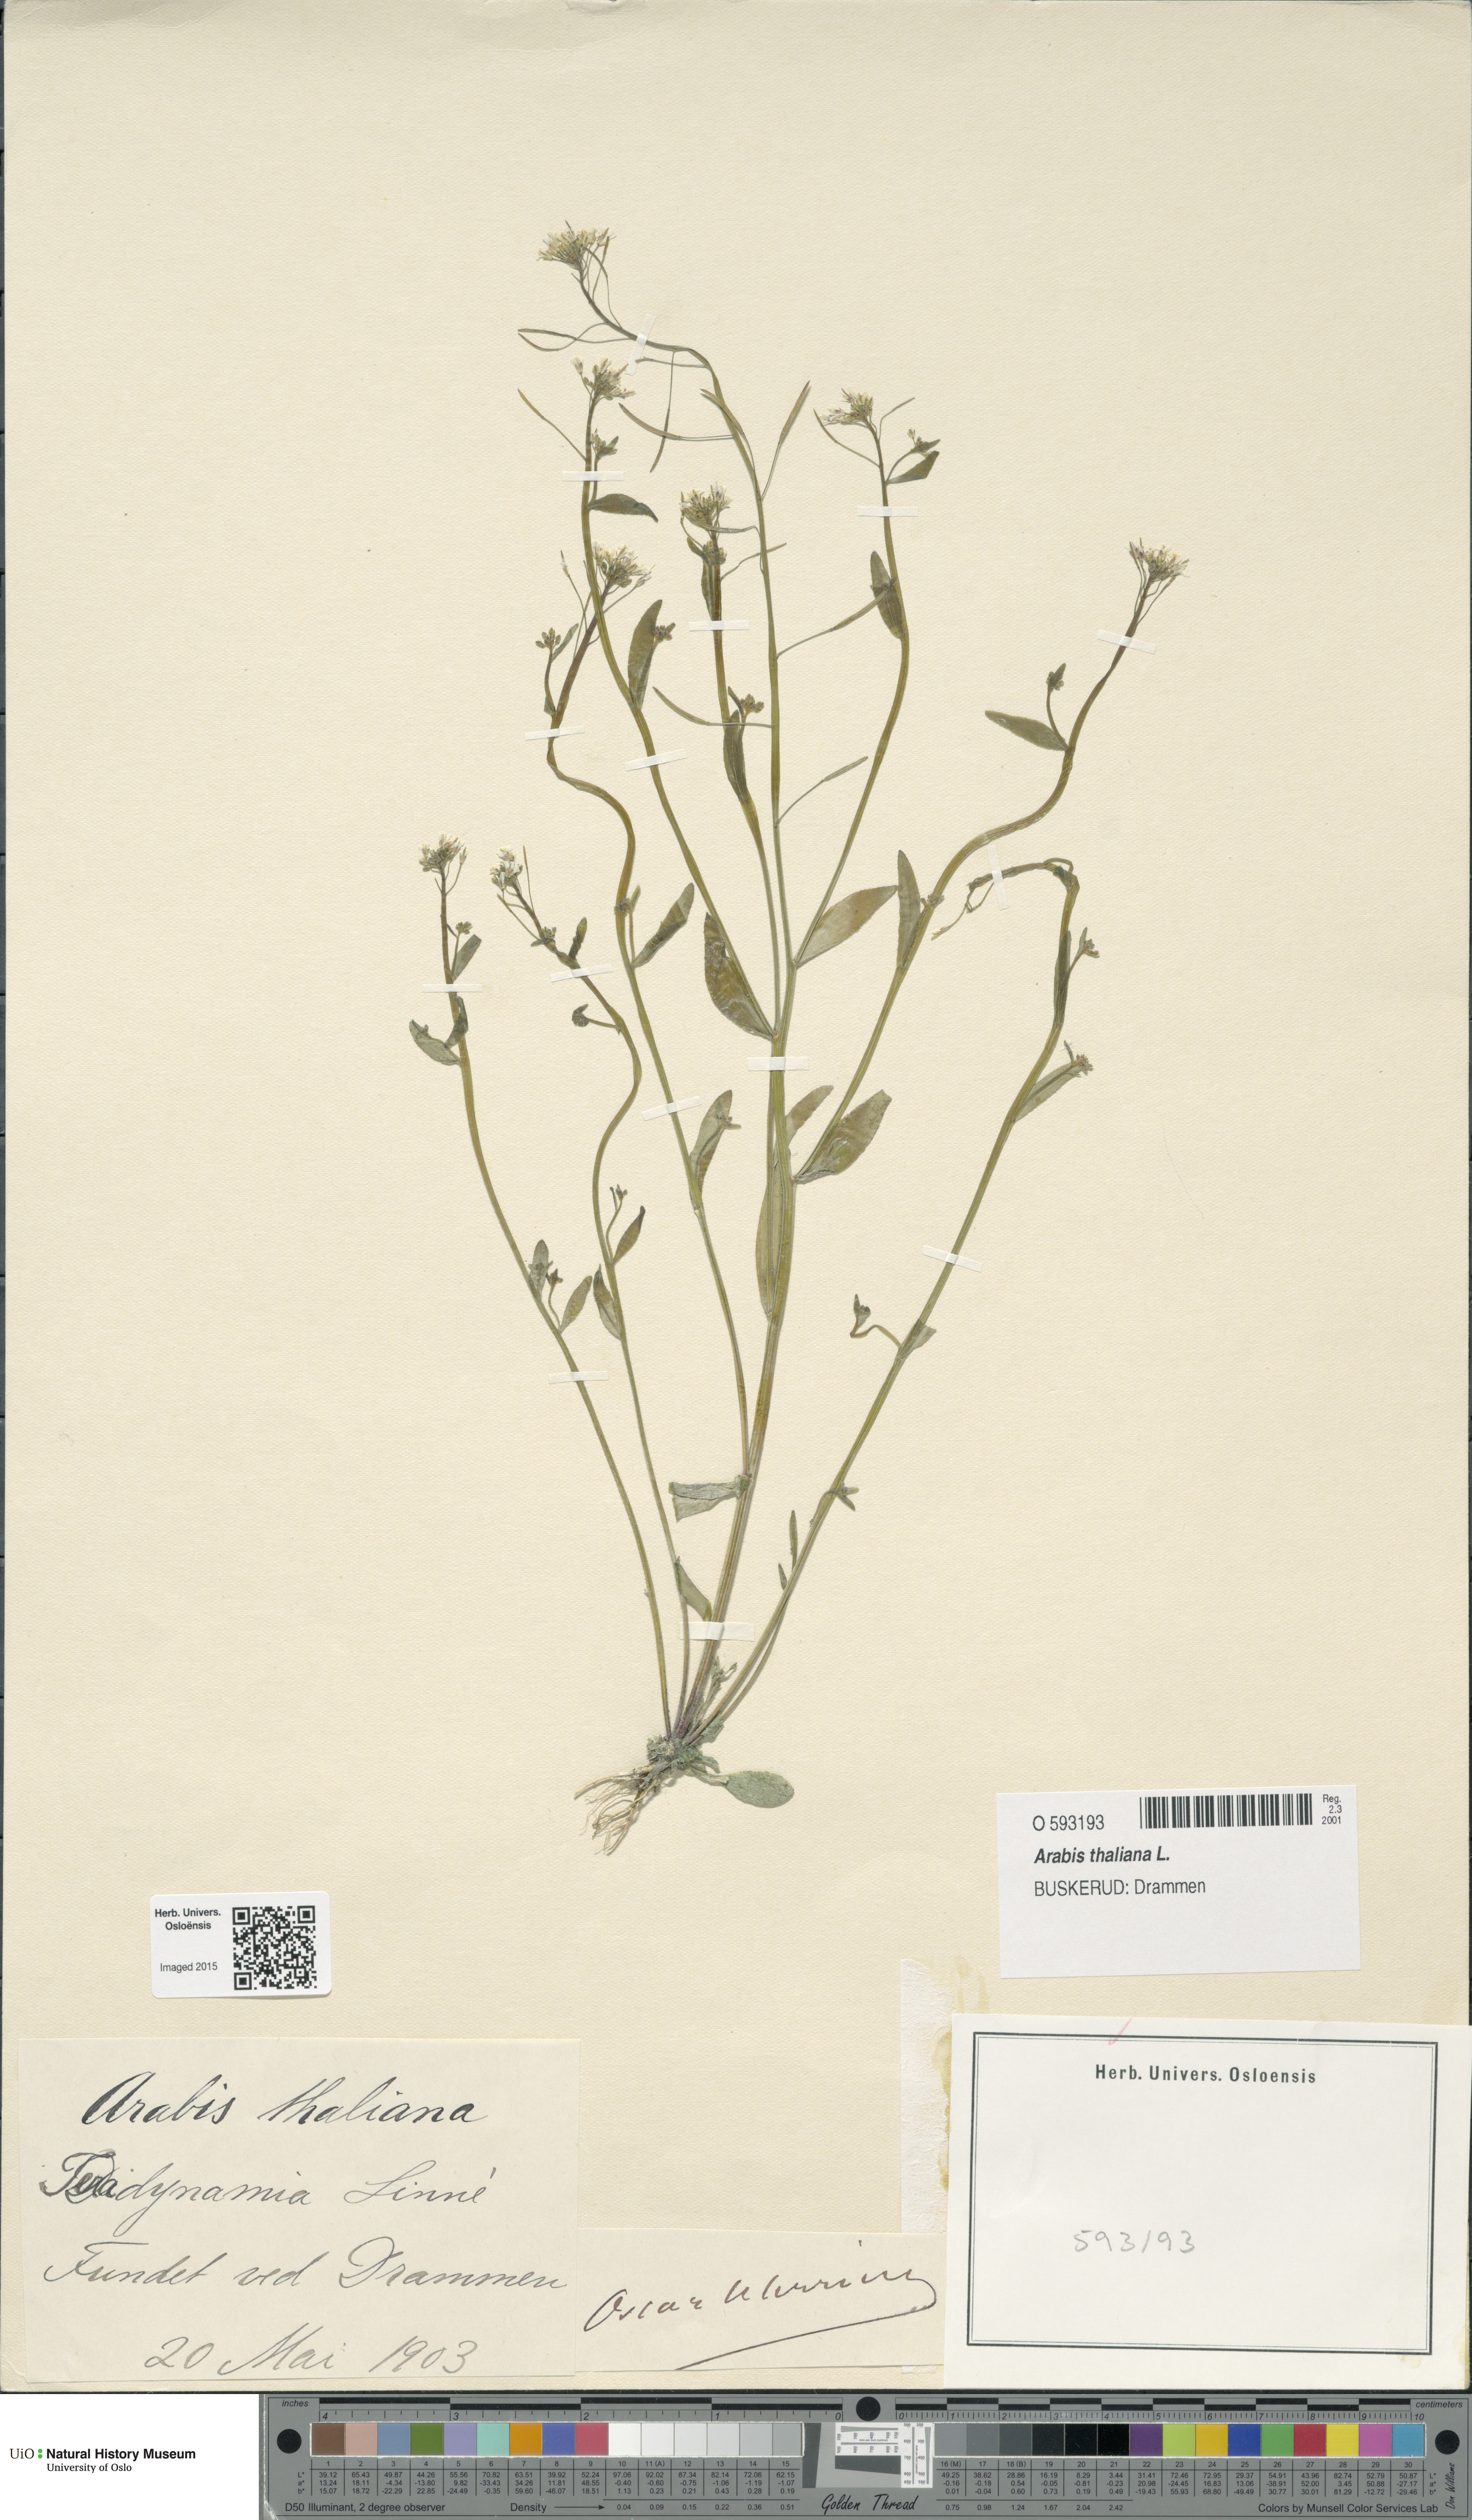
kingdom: Plantae
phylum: Tracheophyta
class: Magnoliopsida
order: Brassicales
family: Brassicaceae
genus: Arabidopsis
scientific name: Arabidopsis thaliana
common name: Thale cress
